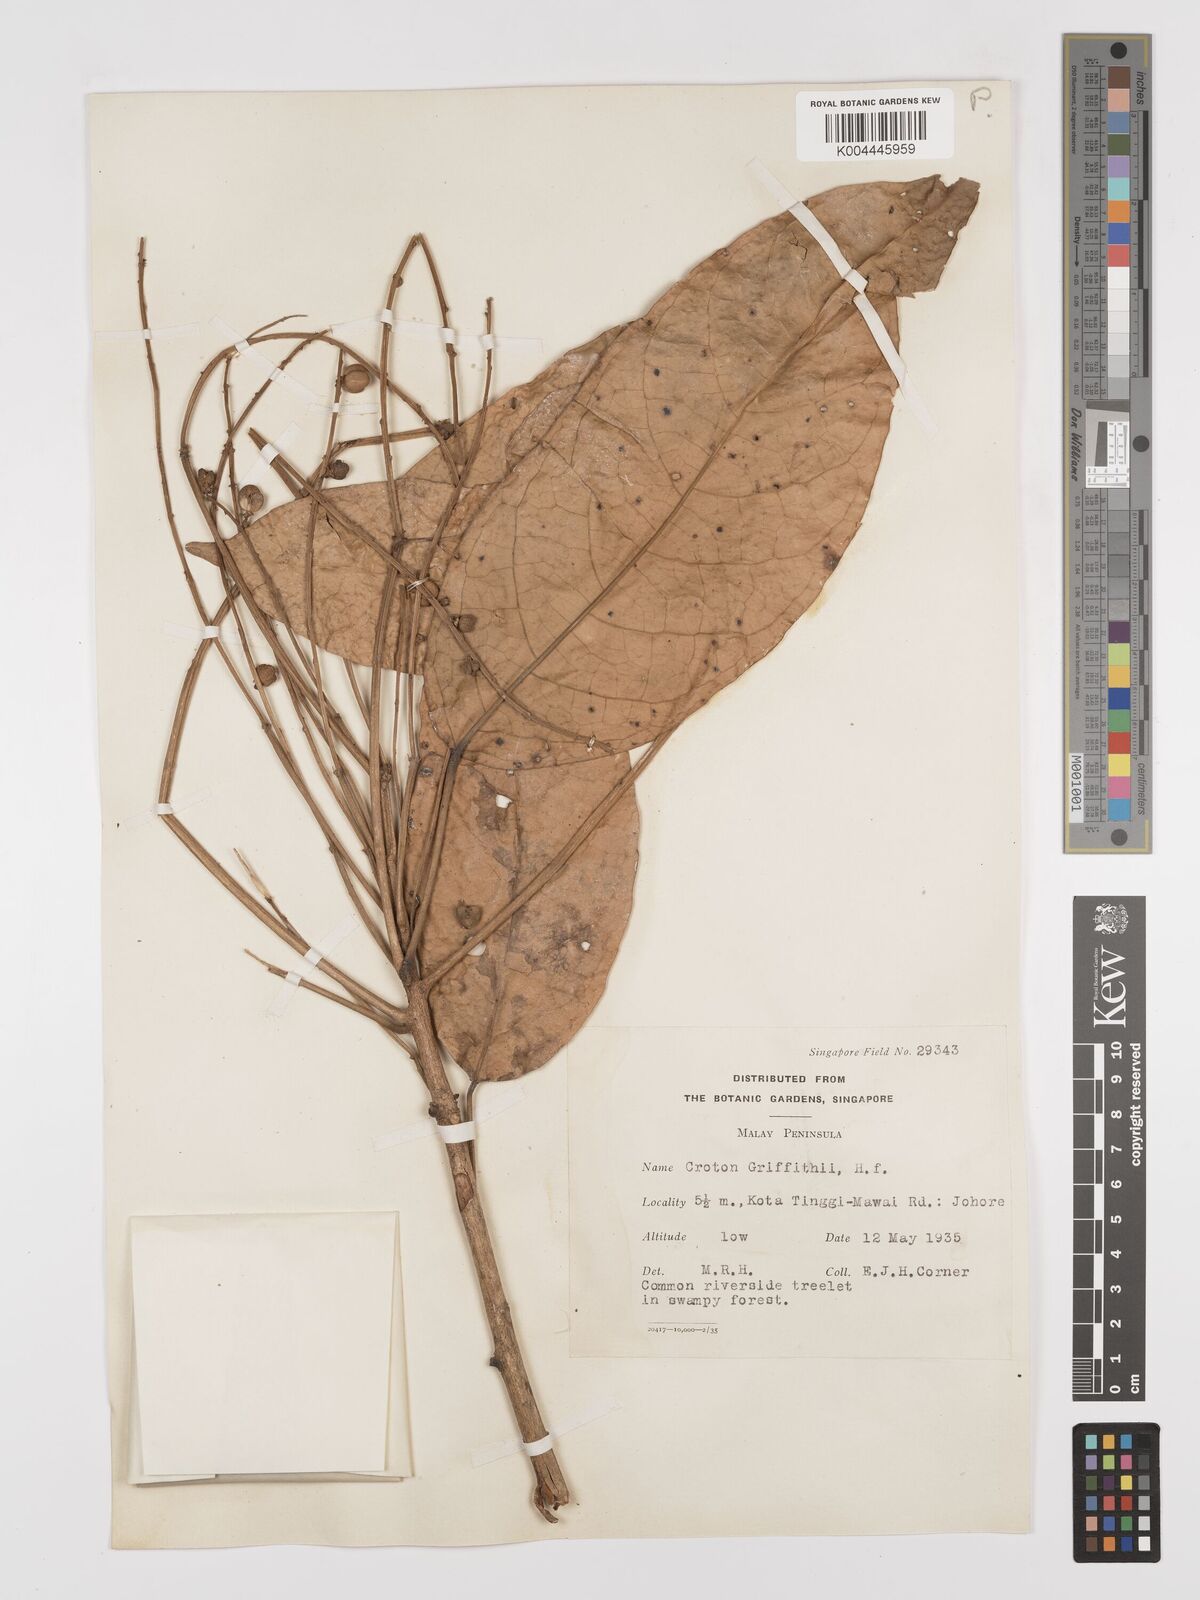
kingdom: Plantae
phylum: Tracheophyta
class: Magnoliopsida
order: Malpighiales
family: Euphorbiaceae
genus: Croton
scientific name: Croton griffithii
